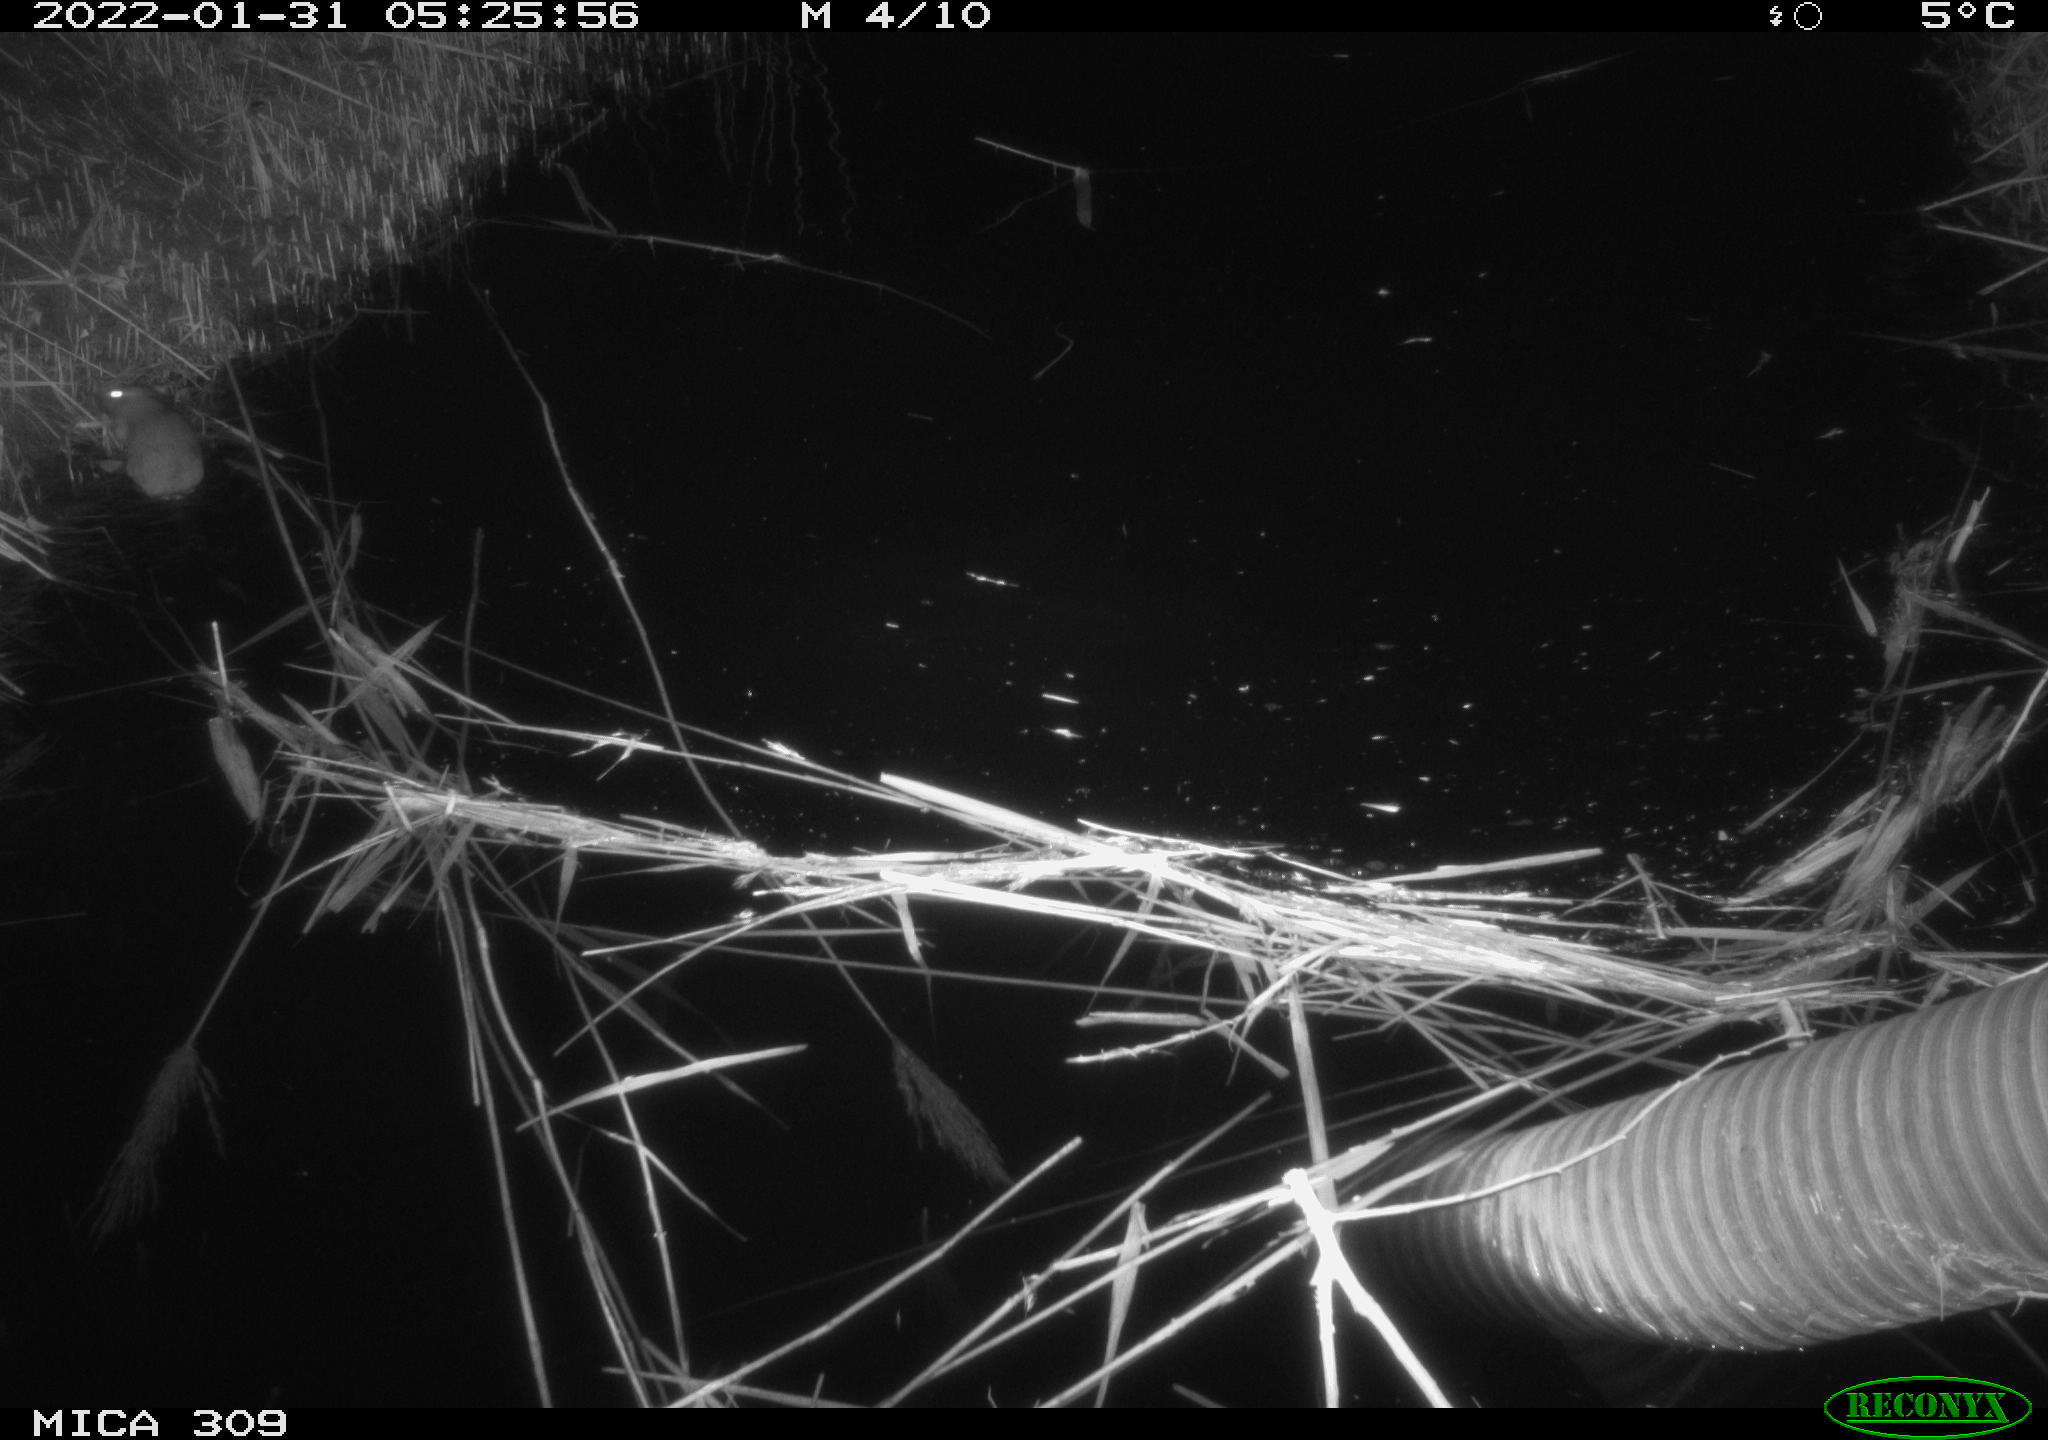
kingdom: Animalia
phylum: Chordata
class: Mammalia
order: Rodentia
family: Muridae
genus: Rattus
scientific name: Rattus norvegicus
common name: Brown rat
